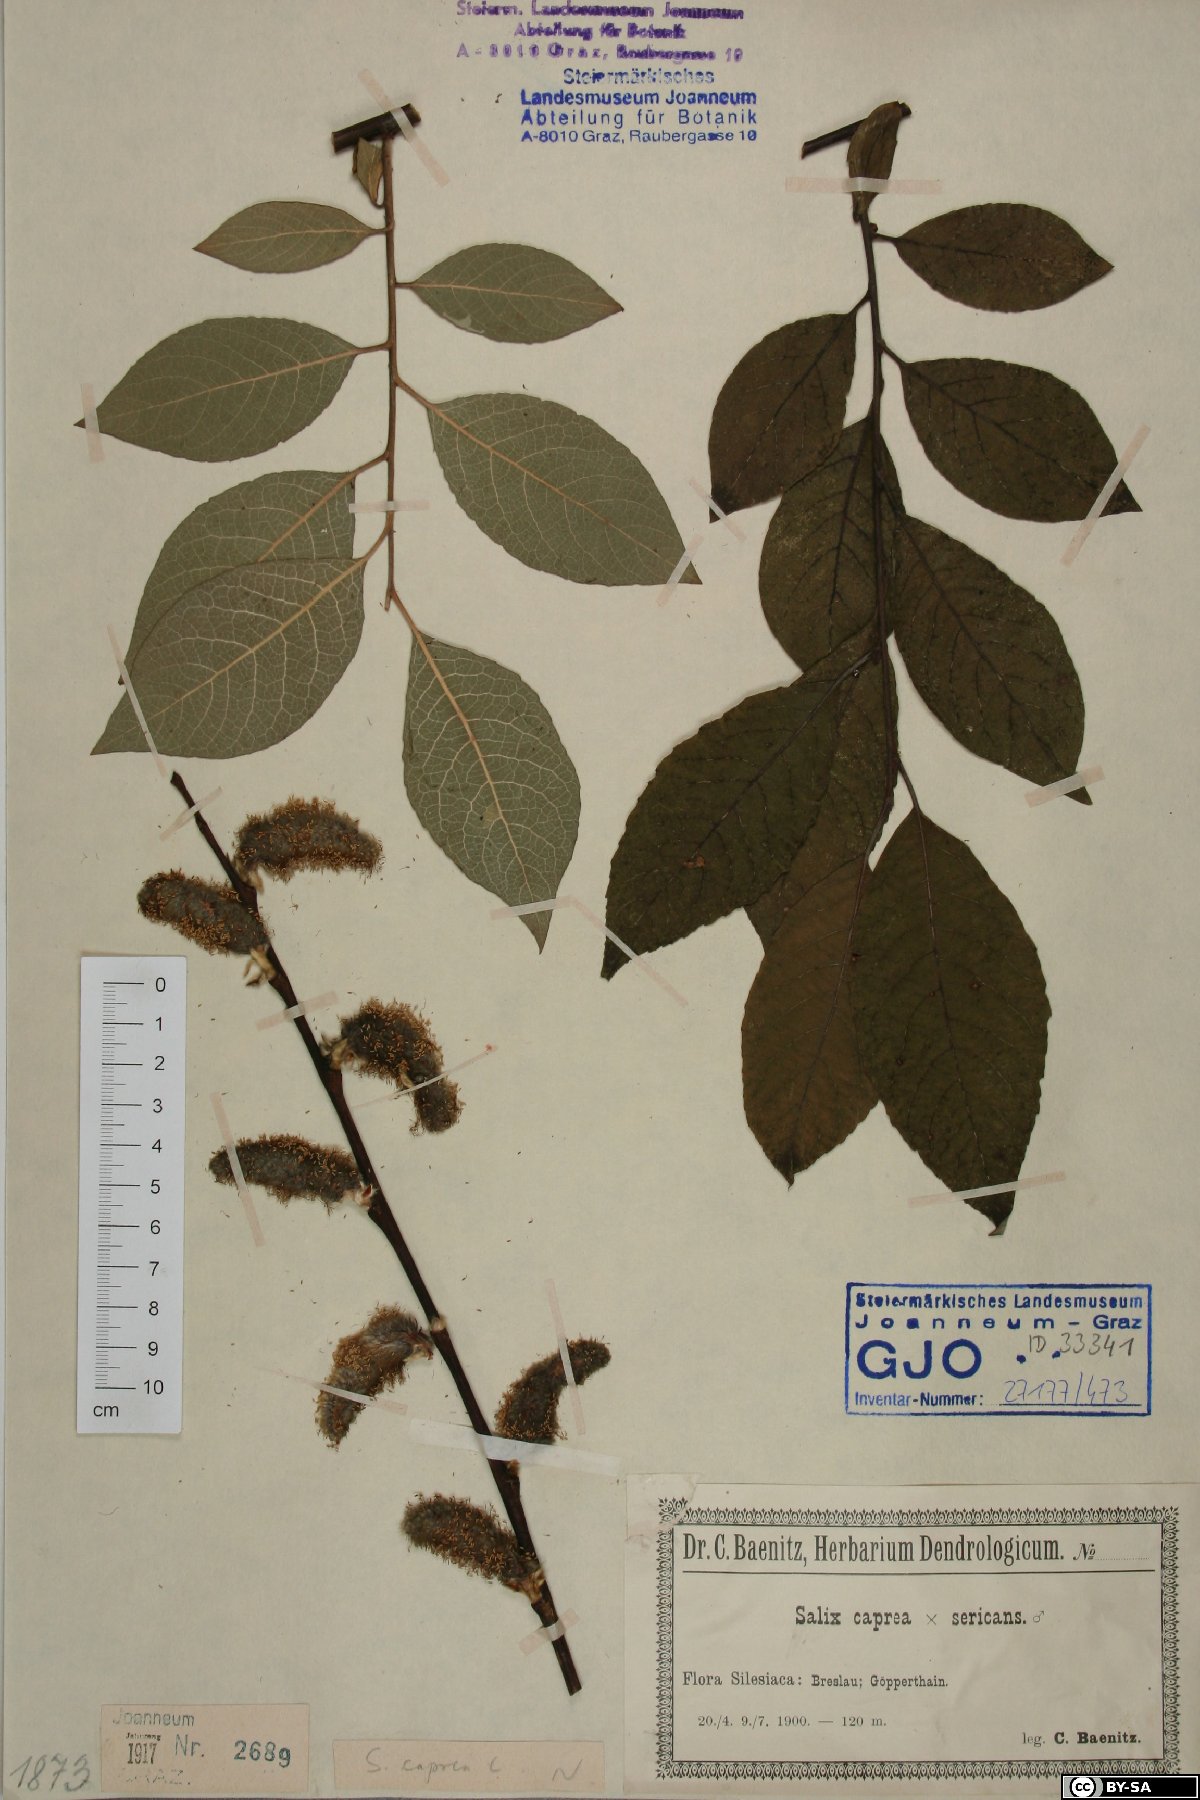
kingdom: Plantae
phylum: Tracheophyta
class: Magnoliopsida
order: Malpighiales
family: Salicaceae
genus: Salix
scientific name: Salix caprea
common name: Goat willow
